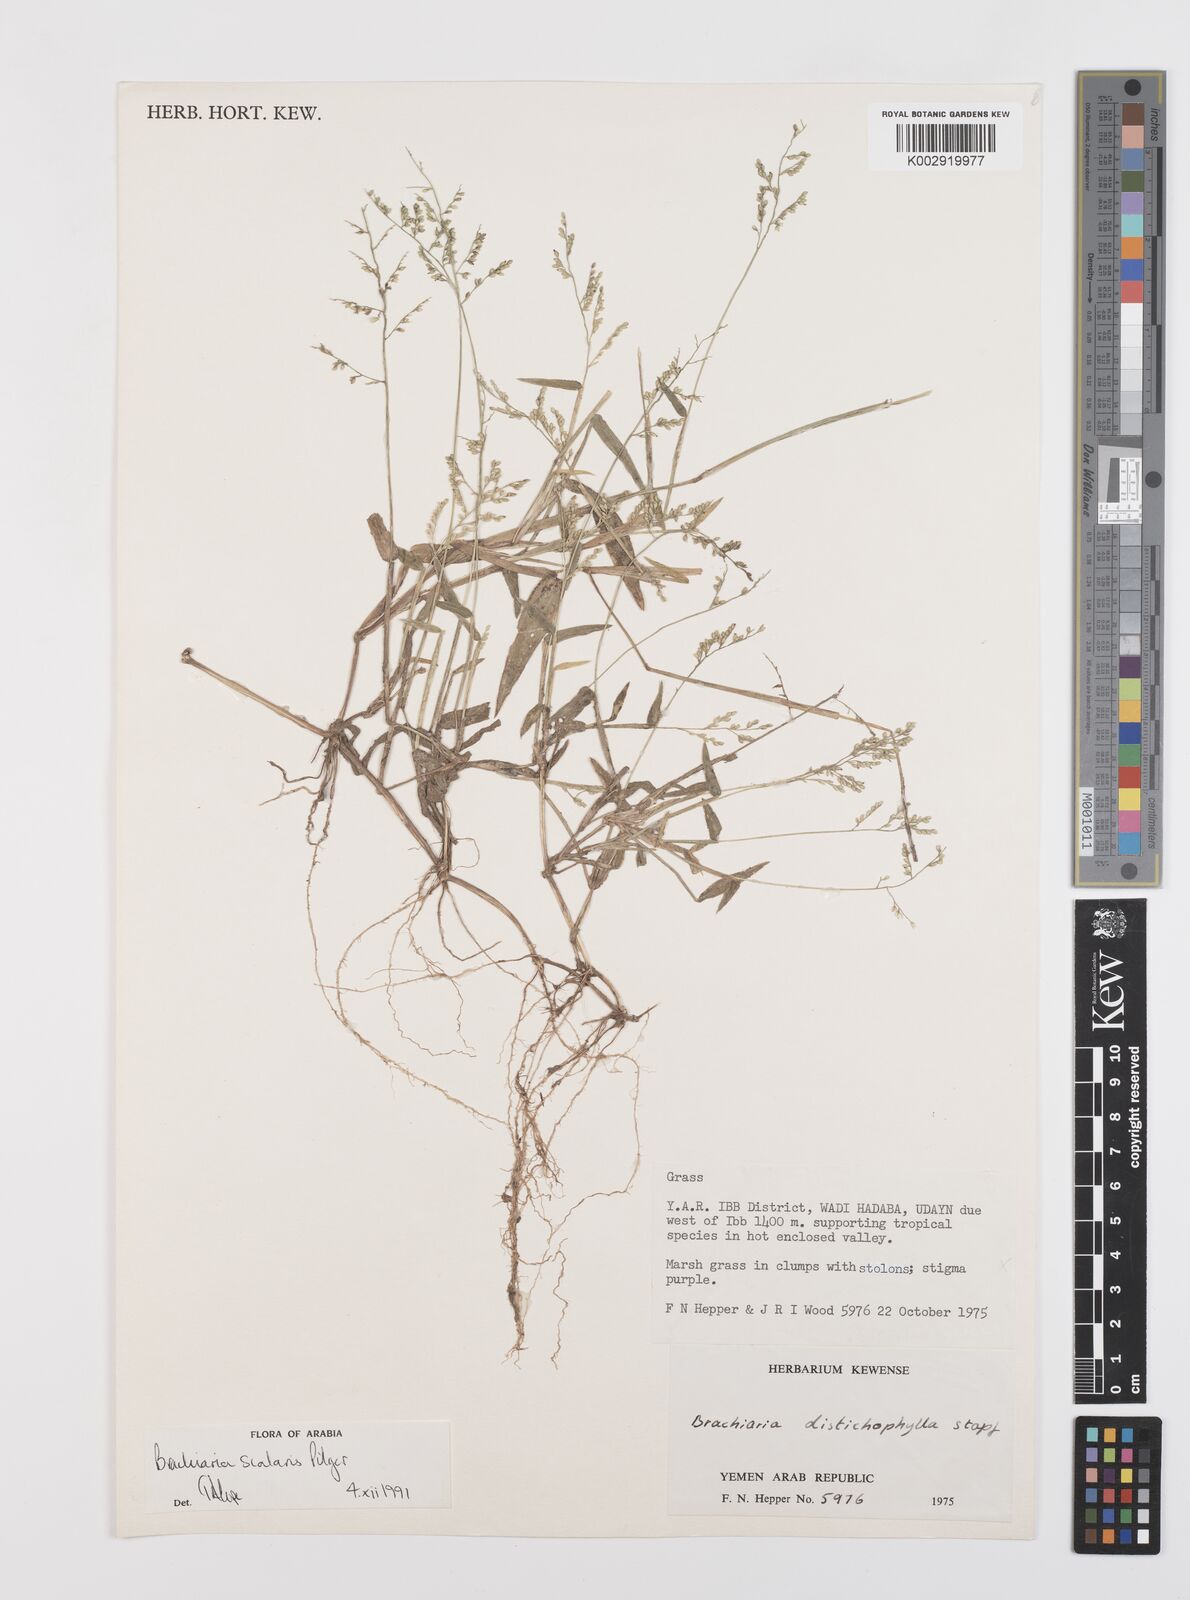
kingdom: Plantae
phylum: Tracheophyta
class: Liliopsida
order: Poales
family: Poaceae
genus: Urochloa
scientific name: Urochloa comata
